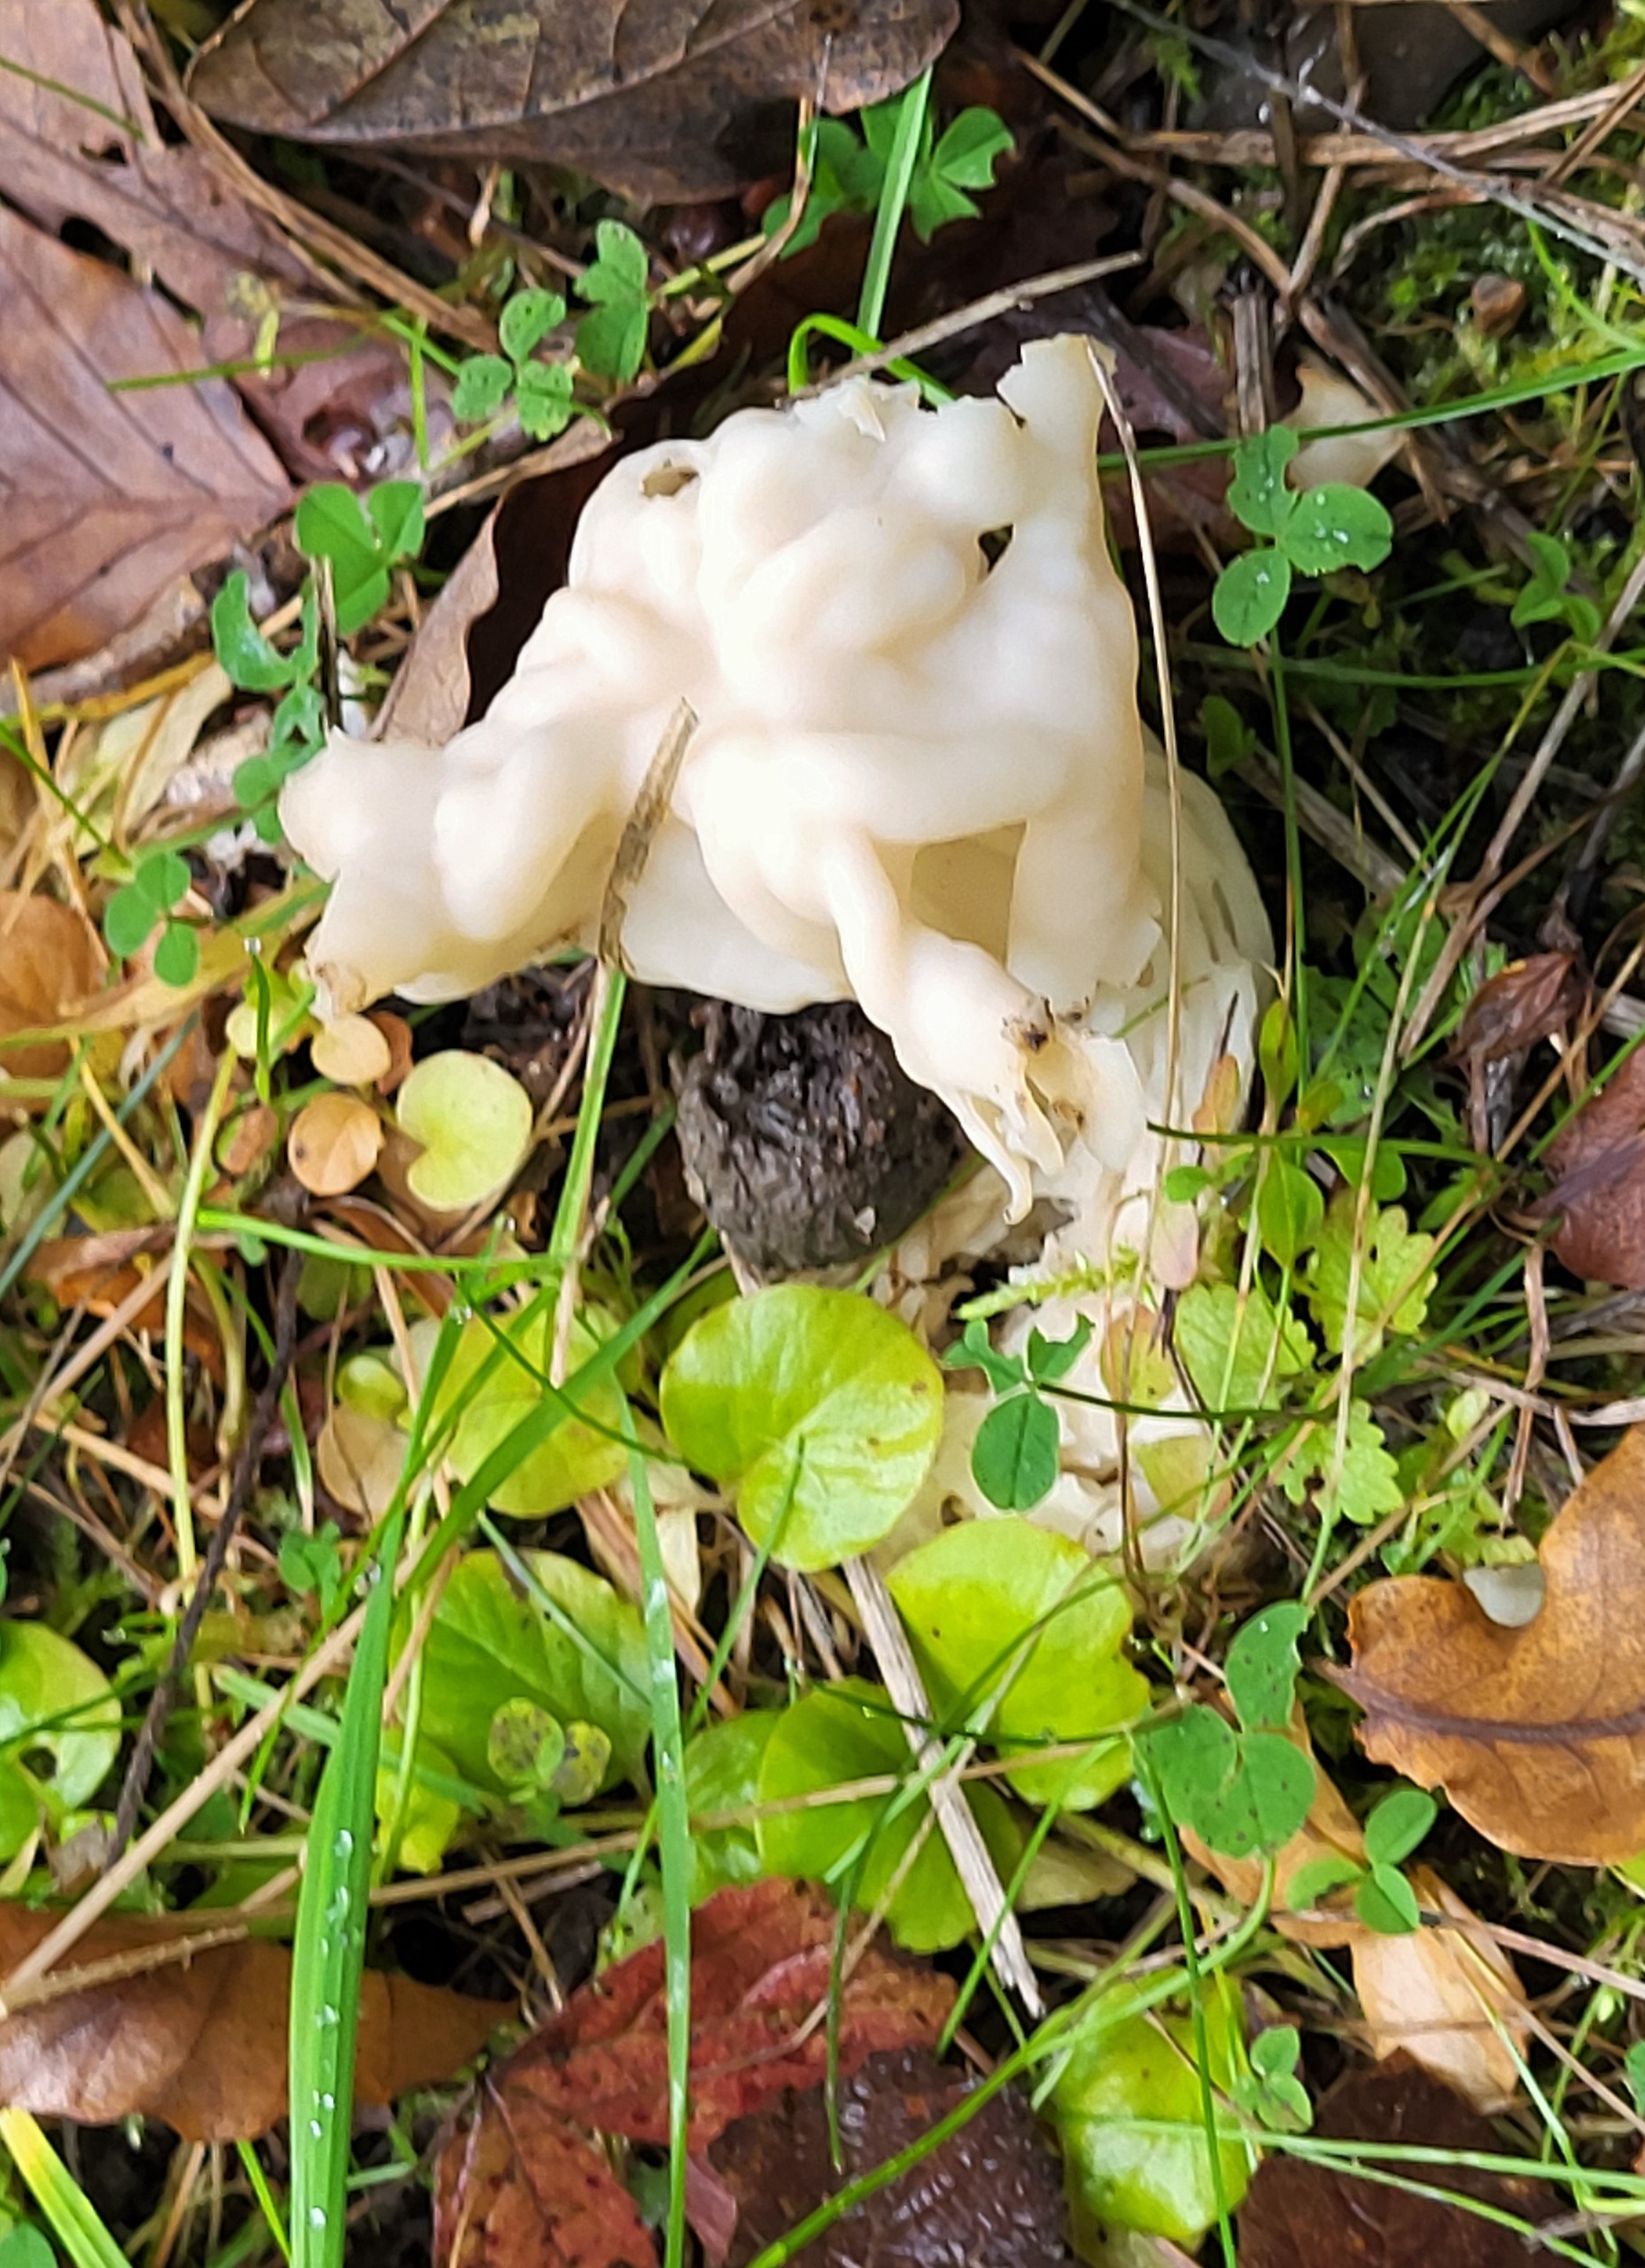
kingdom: Fungi
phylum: Ascomycota
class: Pezizomycetes
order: Pezizales
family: Helvellaceae
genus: Helvella
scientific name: Helvella crispa
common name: Kruset foldhat
